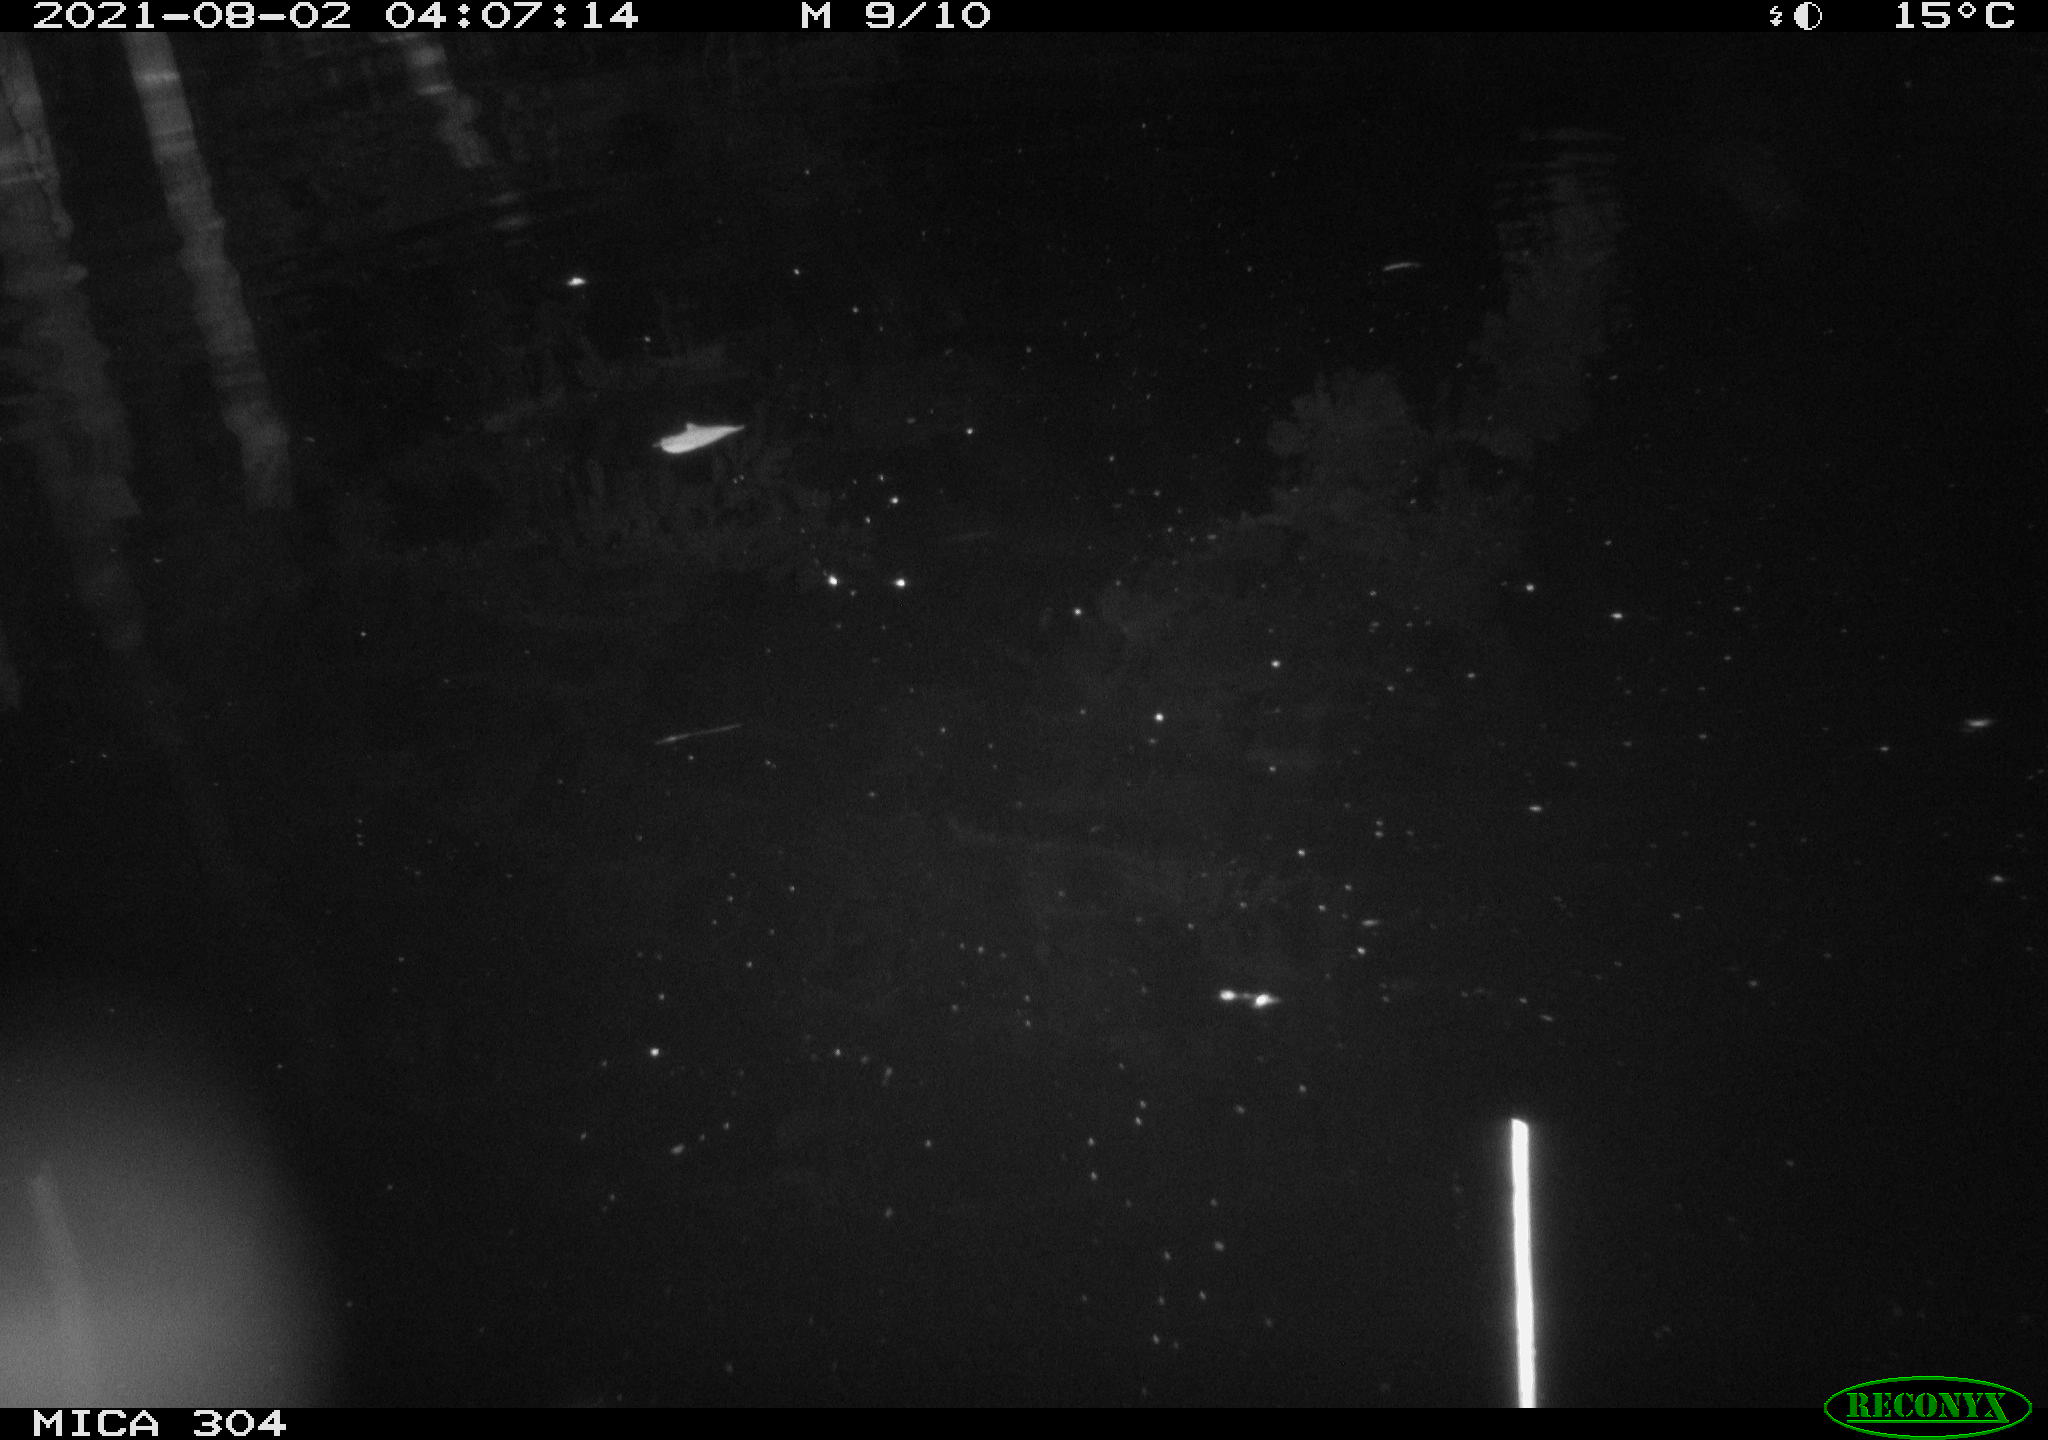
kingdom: Animalia
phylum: Chordata
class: Mammalia
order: Rodentia
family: Muridae
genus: Rattus
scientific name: Rattus norvegicus
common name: Brown rat
